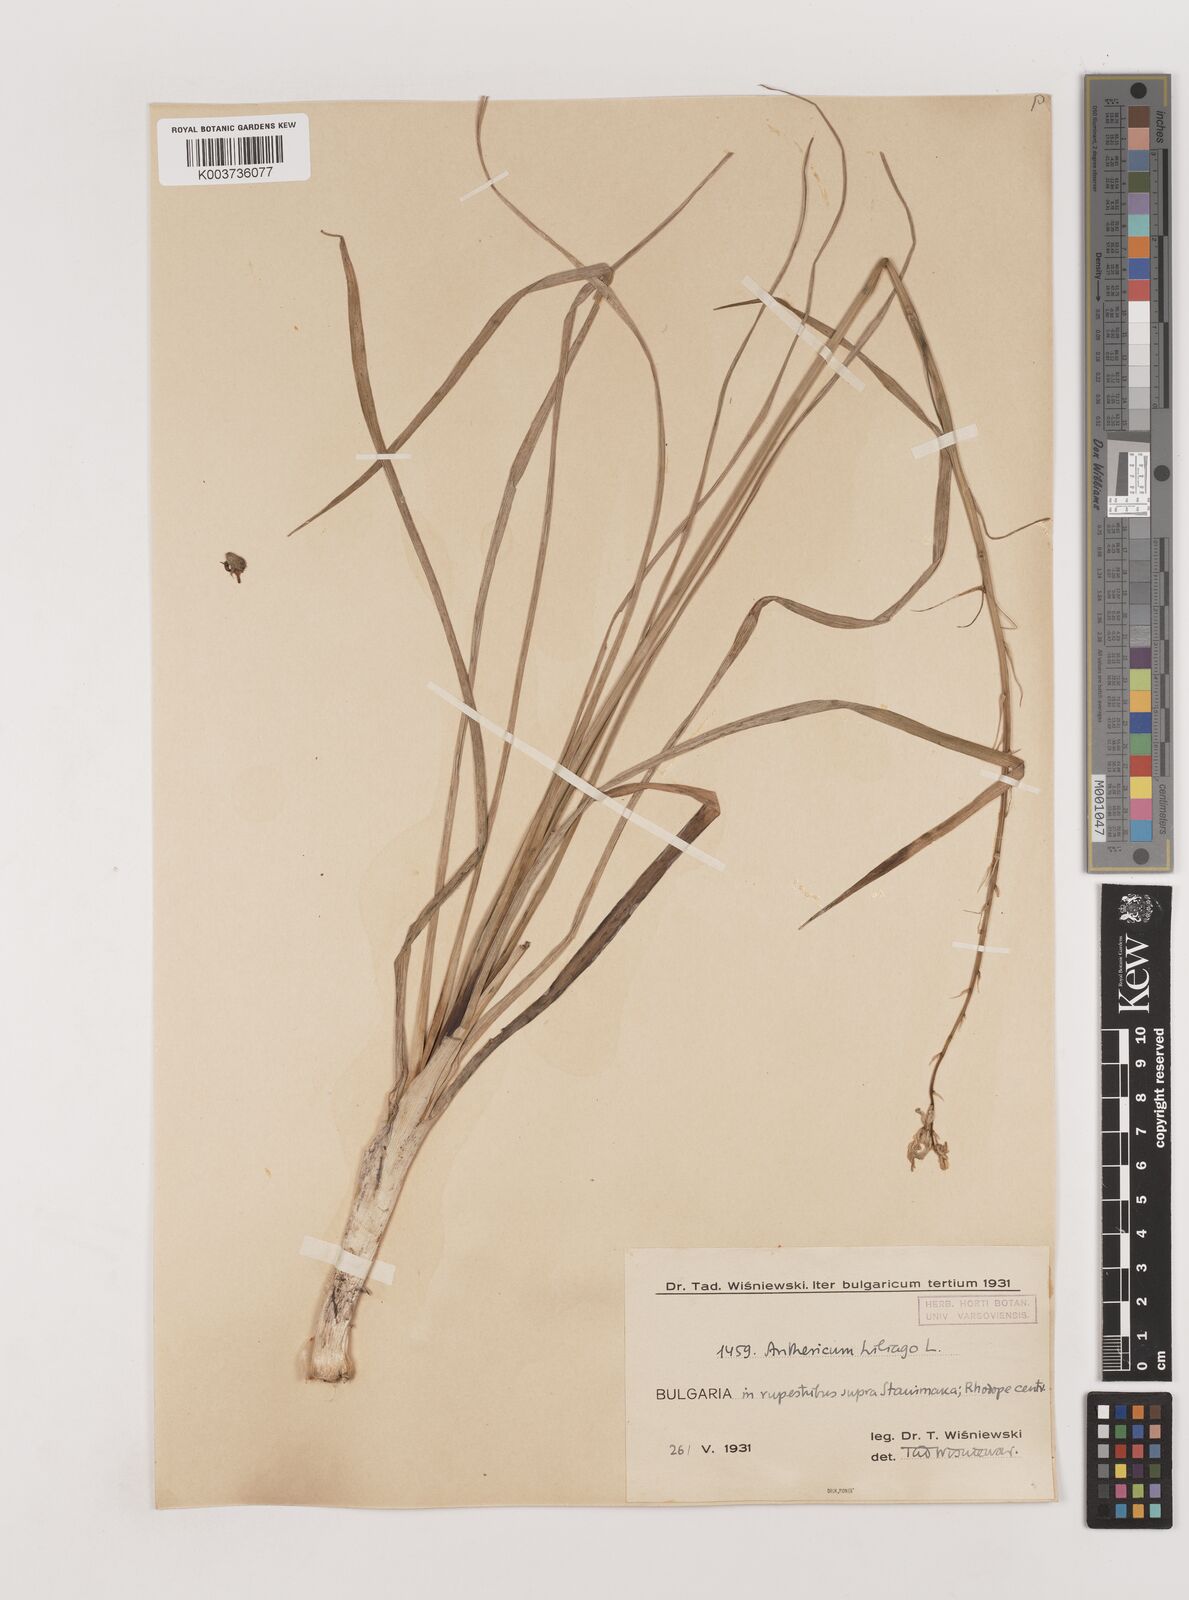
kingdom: Plantae
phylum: Tracheophyta
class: Liliopsida
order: Asparagales
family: Asparagaceae
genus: Anthericum
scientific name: Anthericum liliago
